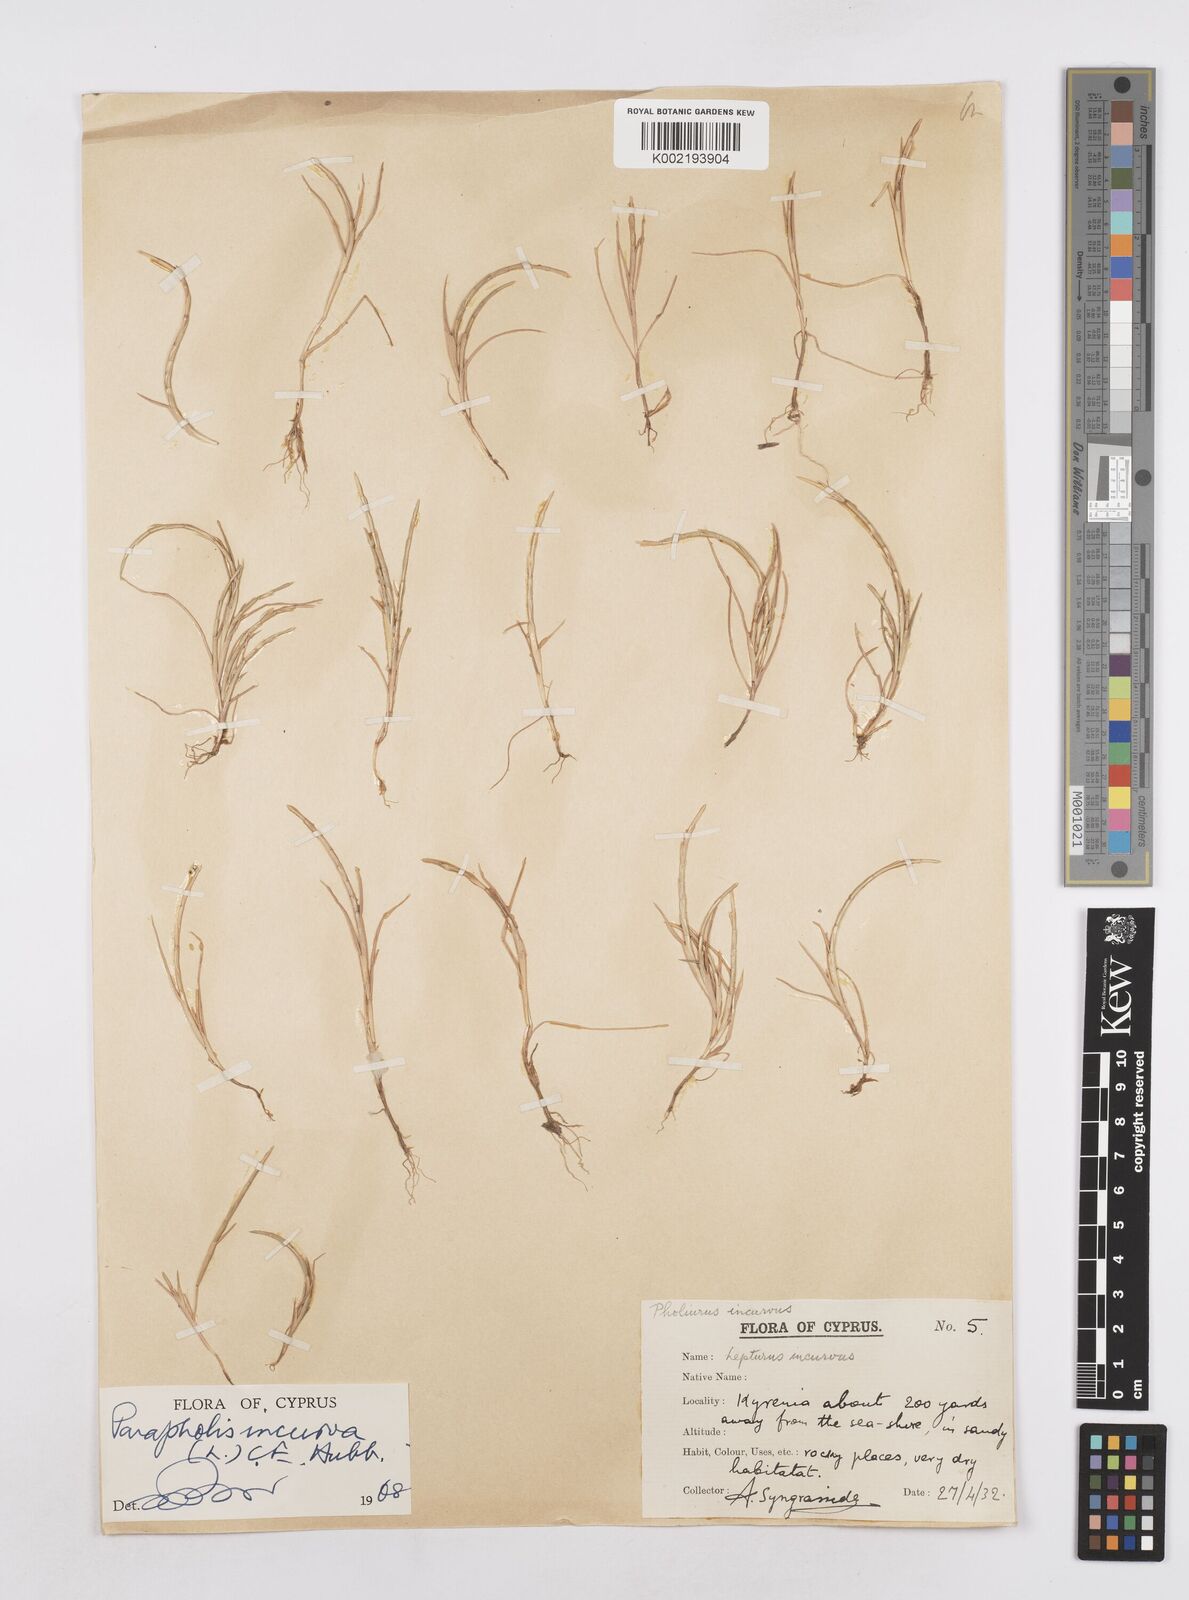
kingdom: Plantae
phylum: Tracheophyta
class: Liliopsida
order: Poales
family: Poaceae
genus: Parapholis
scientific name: Parapholis incurva
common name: Curved sicklegrass
